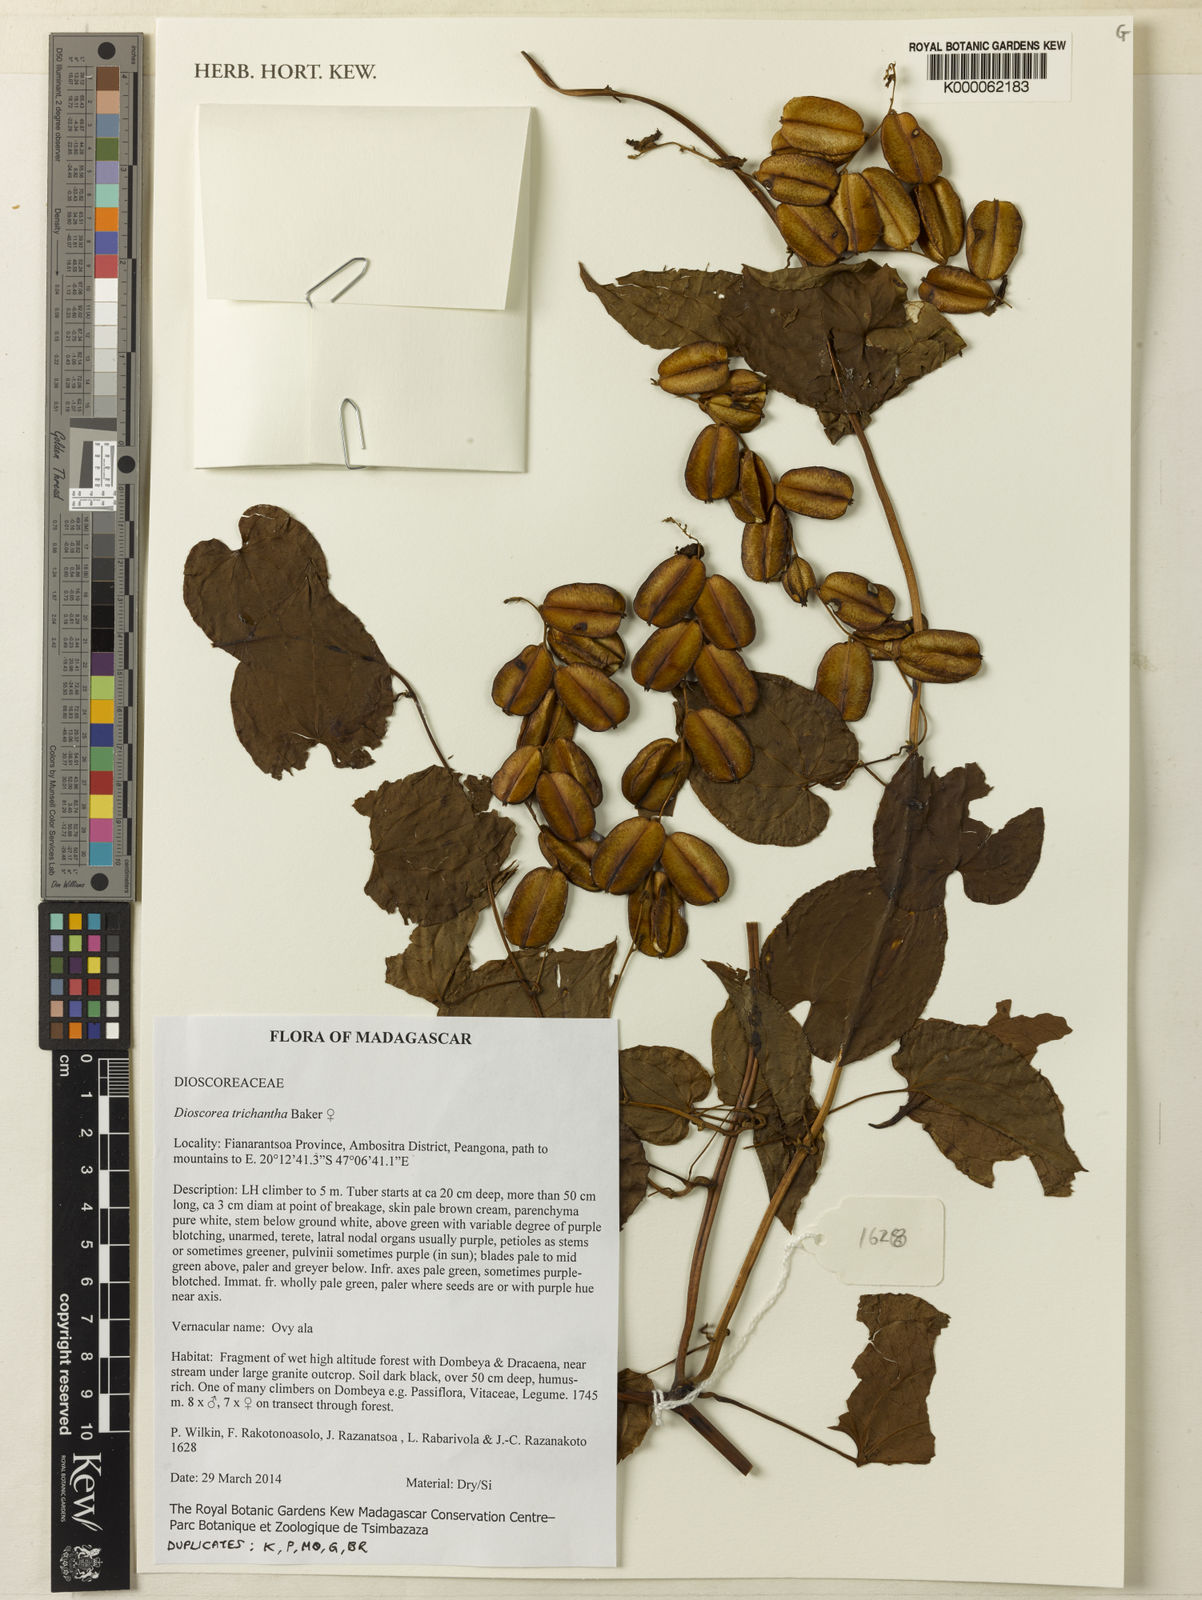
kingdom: Plantae
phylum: Tracheophyta
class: Liliopsida
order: Dioscoreales
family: Dioscoreaceae
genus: Dioscorea
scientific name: Dioscorea trichantha
